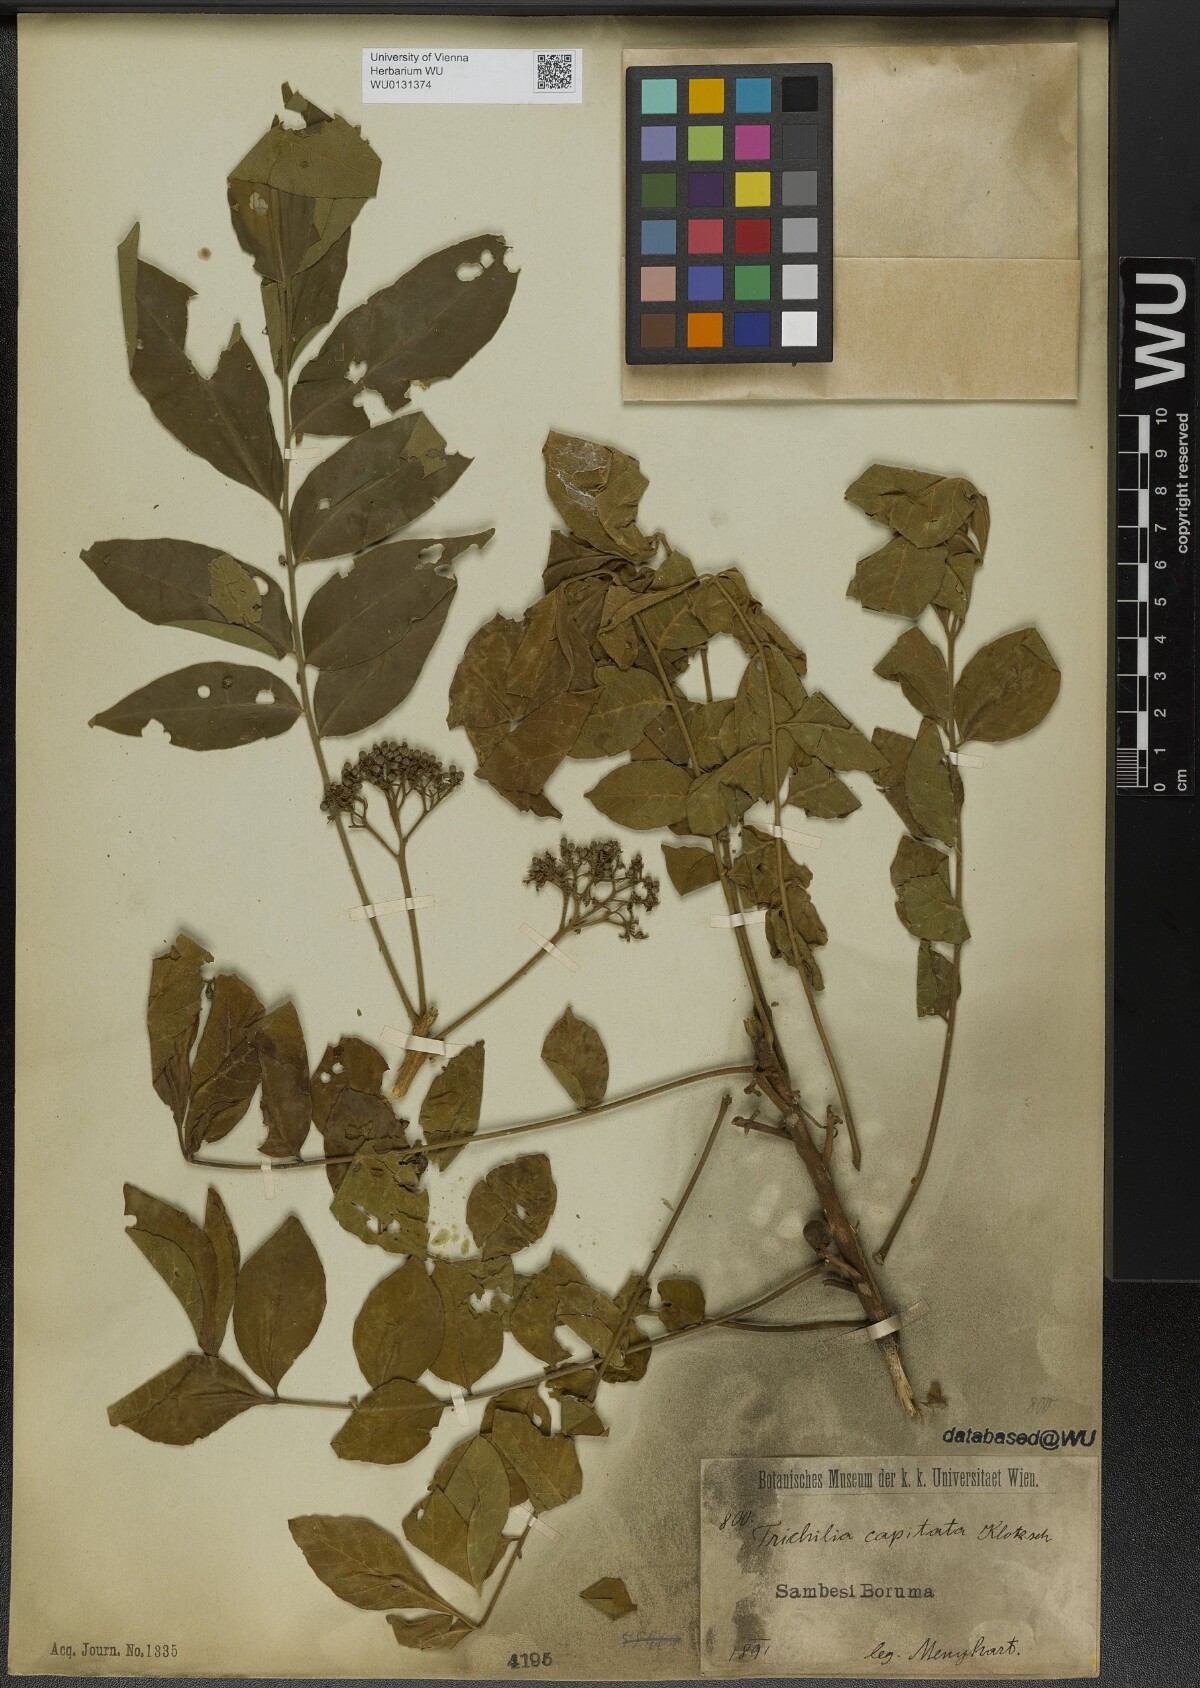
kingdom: Plantae
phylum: Tracheophyta
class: Magnoliopsida
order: Sapindales
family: Meliaceae
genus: Trichilia
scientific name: Trichilia capitata
